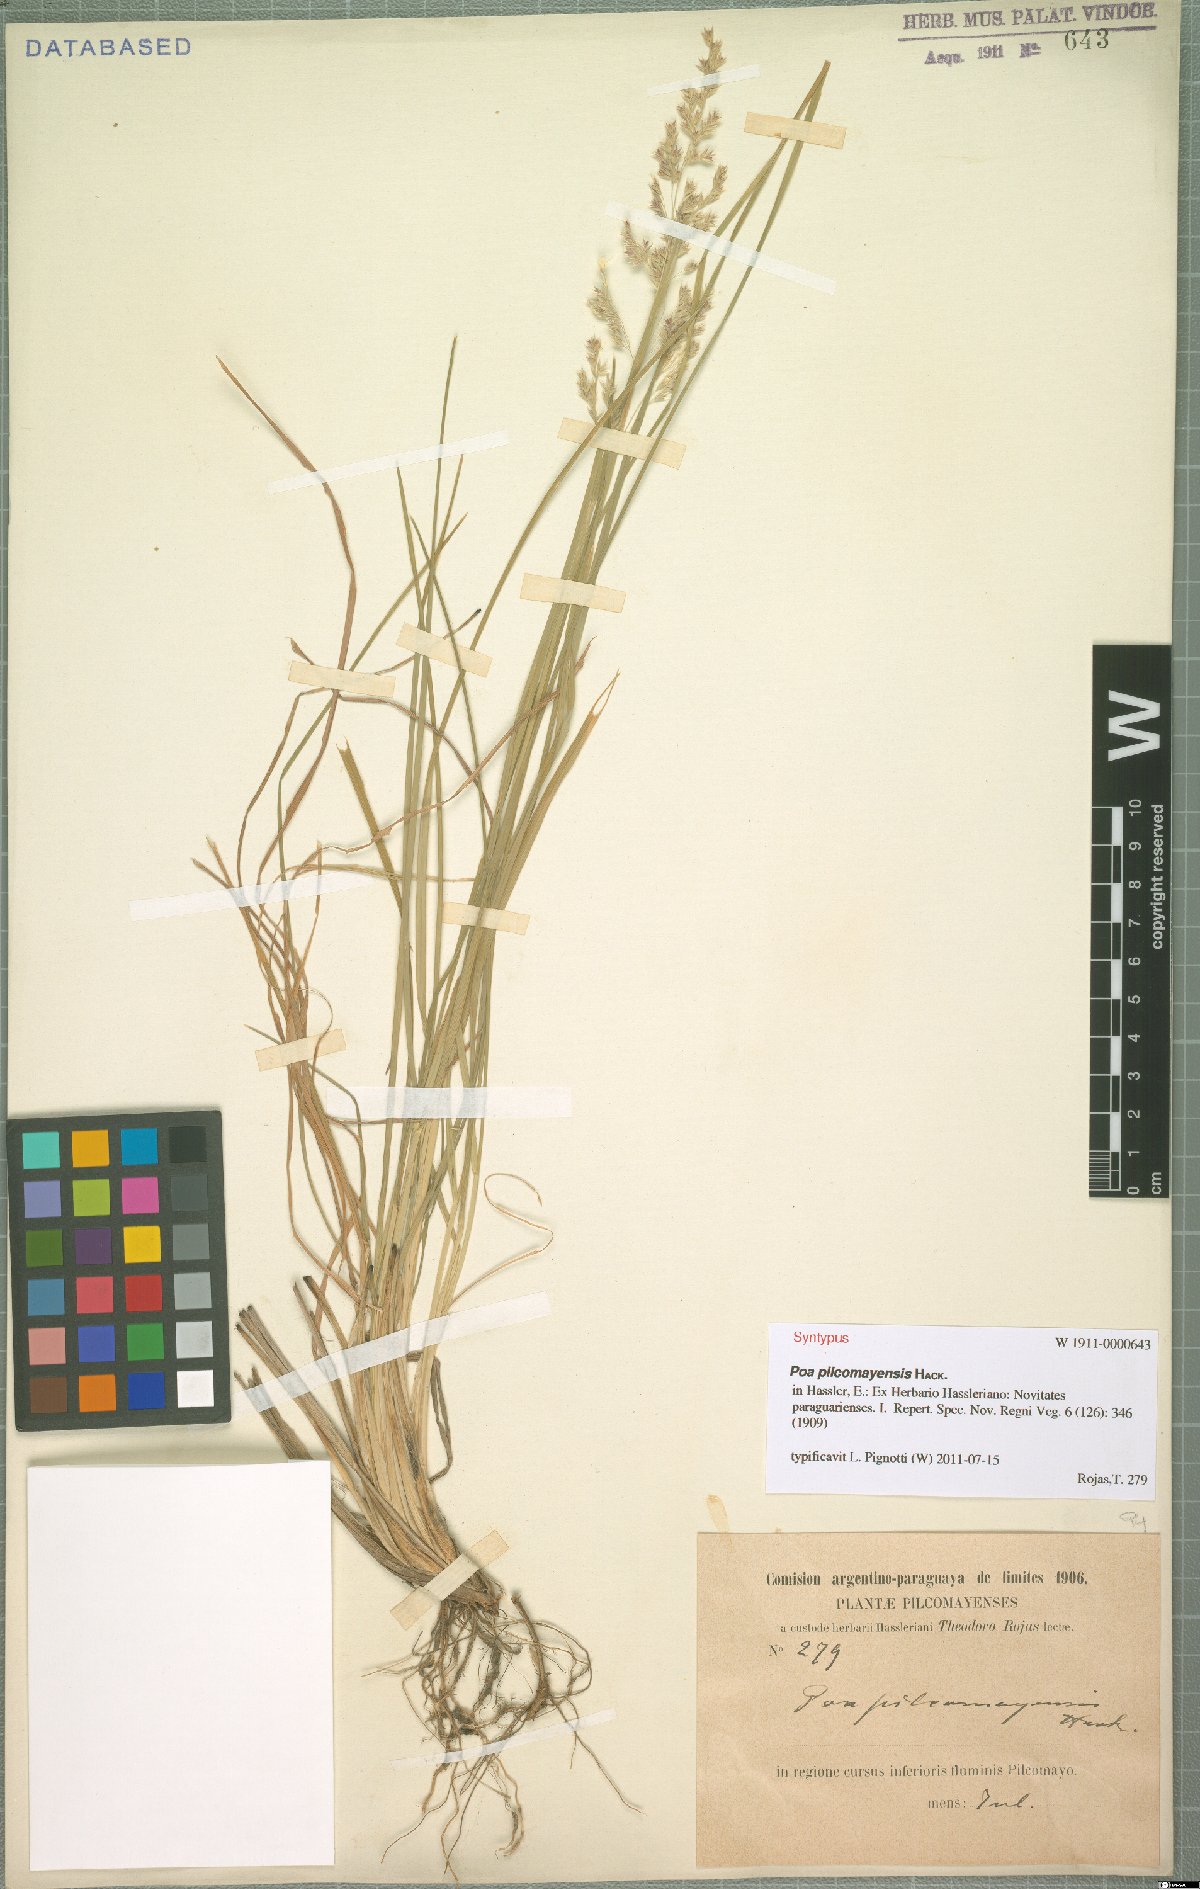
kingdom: Plantae
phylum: Tracheophyta
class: Liliopsida
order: Poales
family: Poaceae
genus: Poa
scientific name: Poa pilcomayensis
